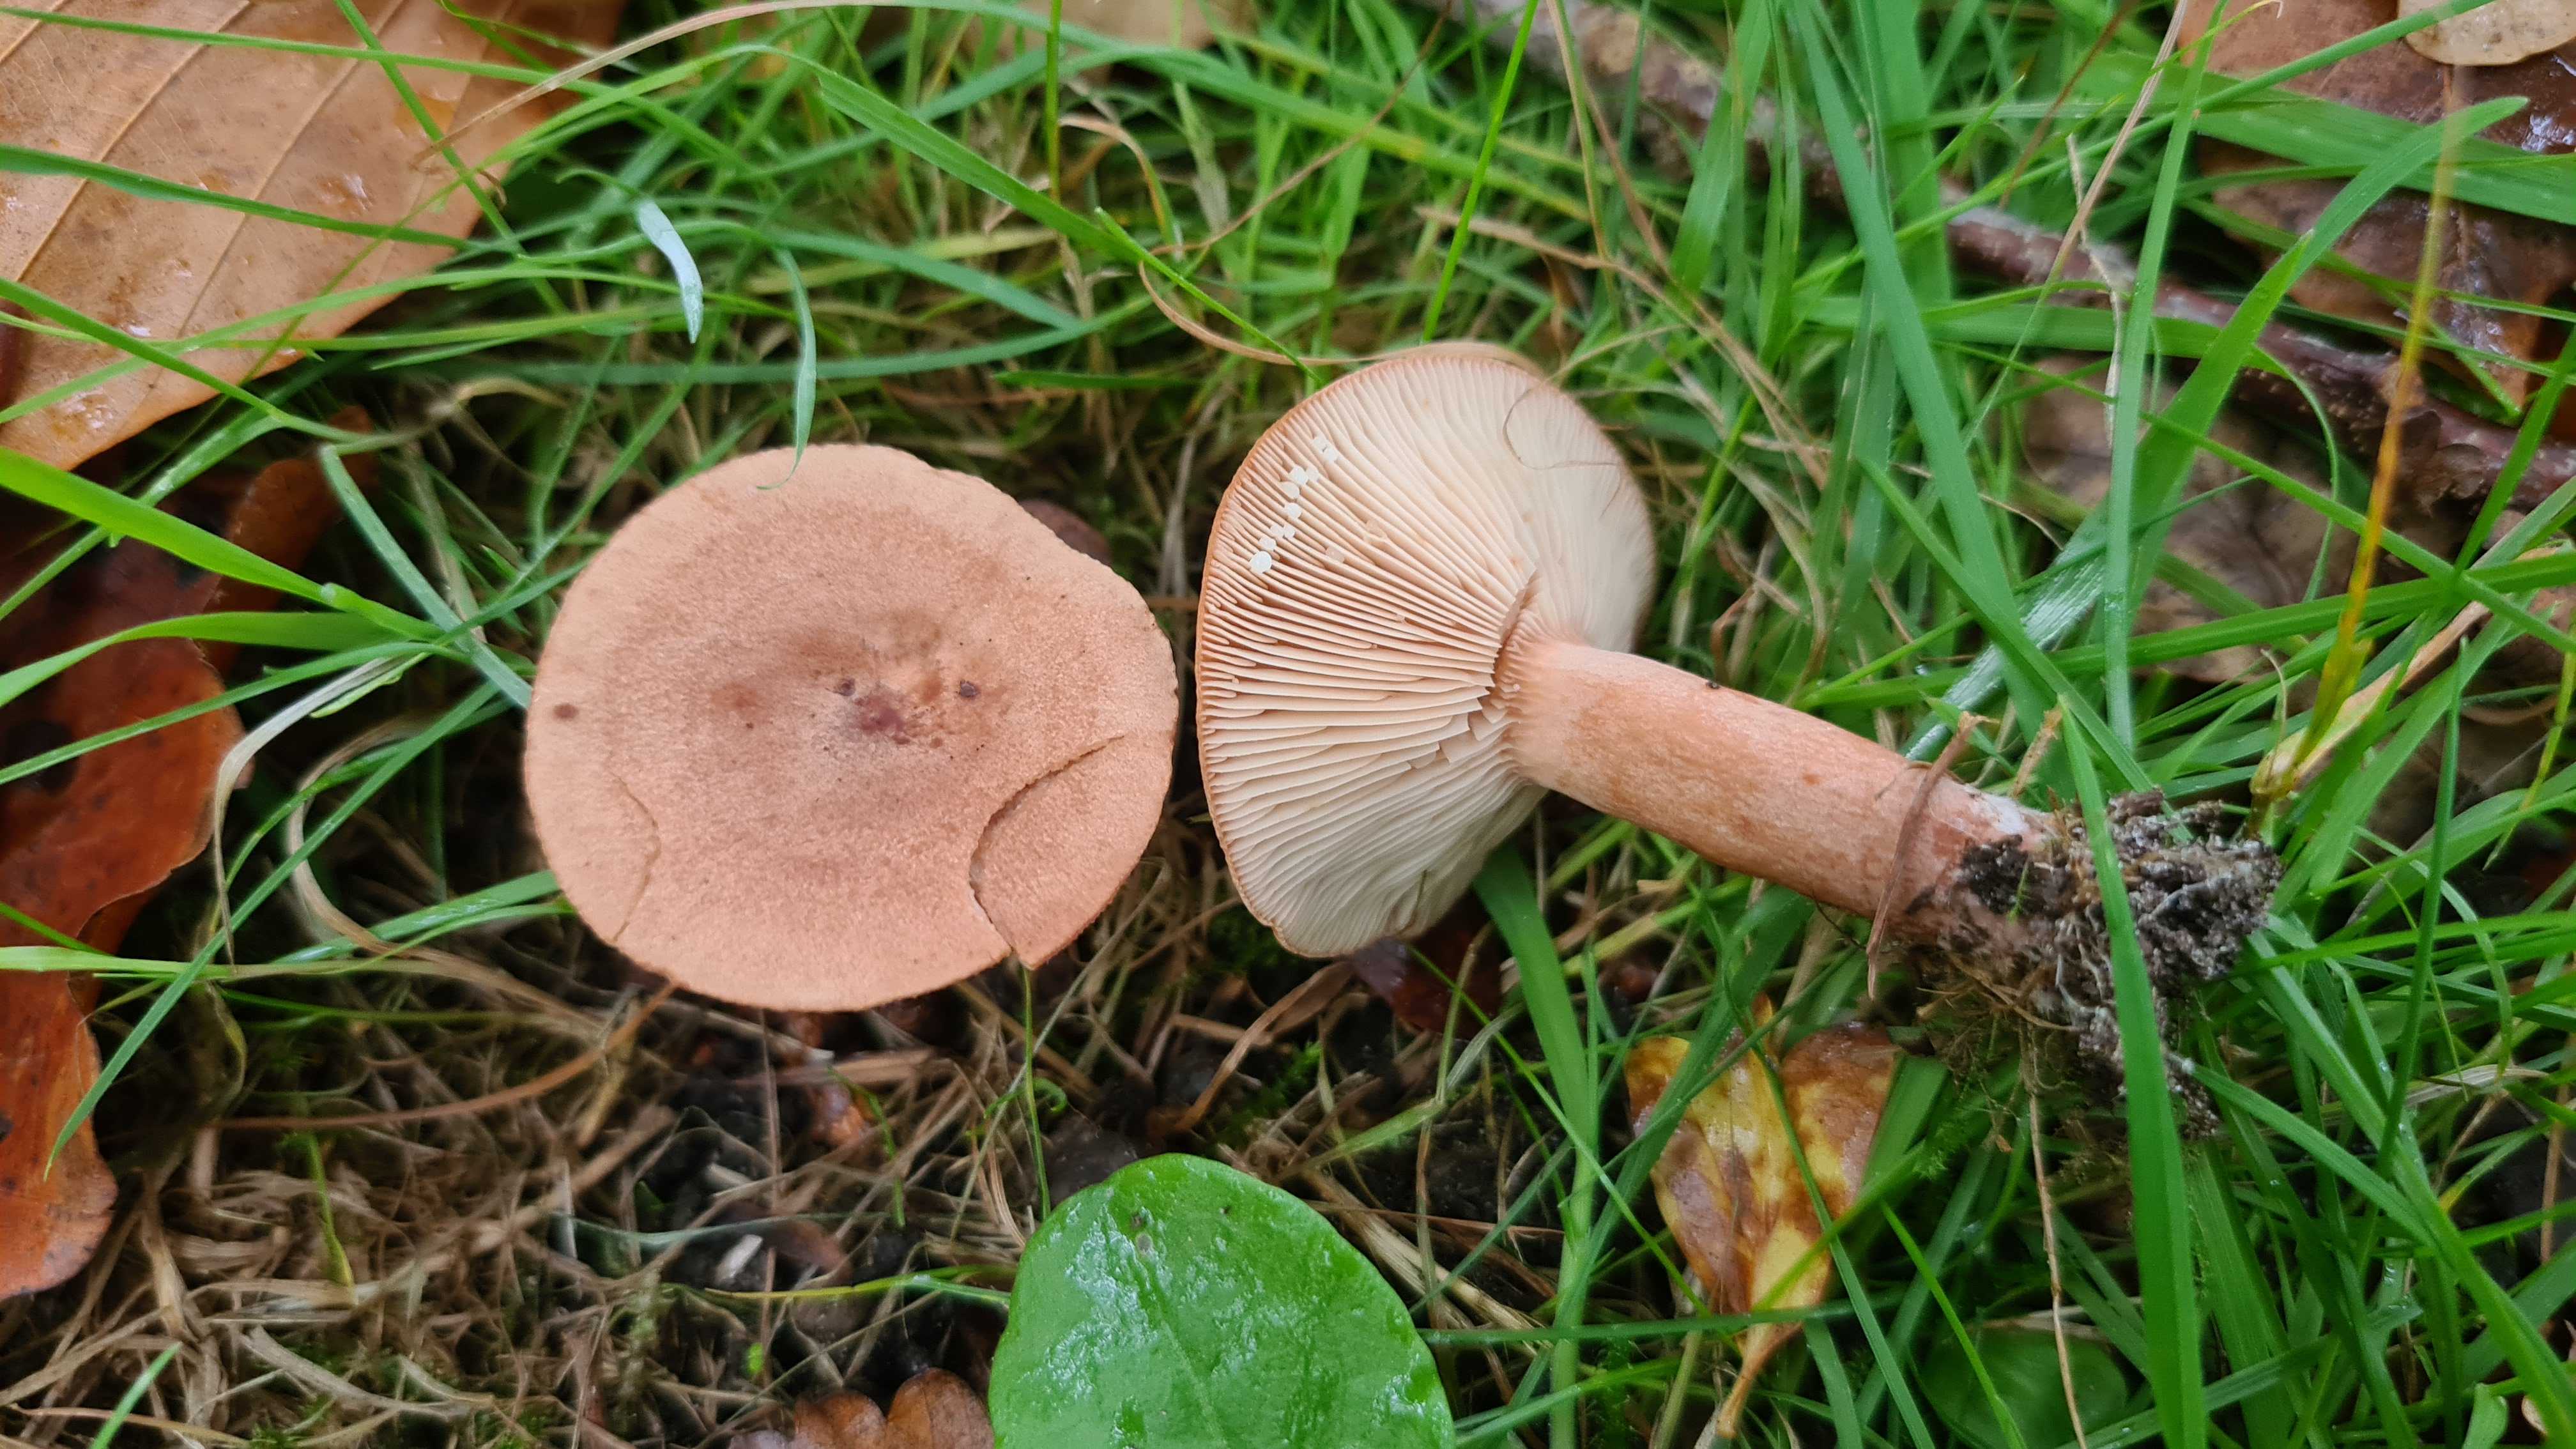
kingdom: Fungi
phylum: Basidiomycota
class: Agaricomycetes
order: Russulales
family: Russulaceae
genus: Lactarius
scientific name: Lactarius quietus
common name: ege-mælkehat
